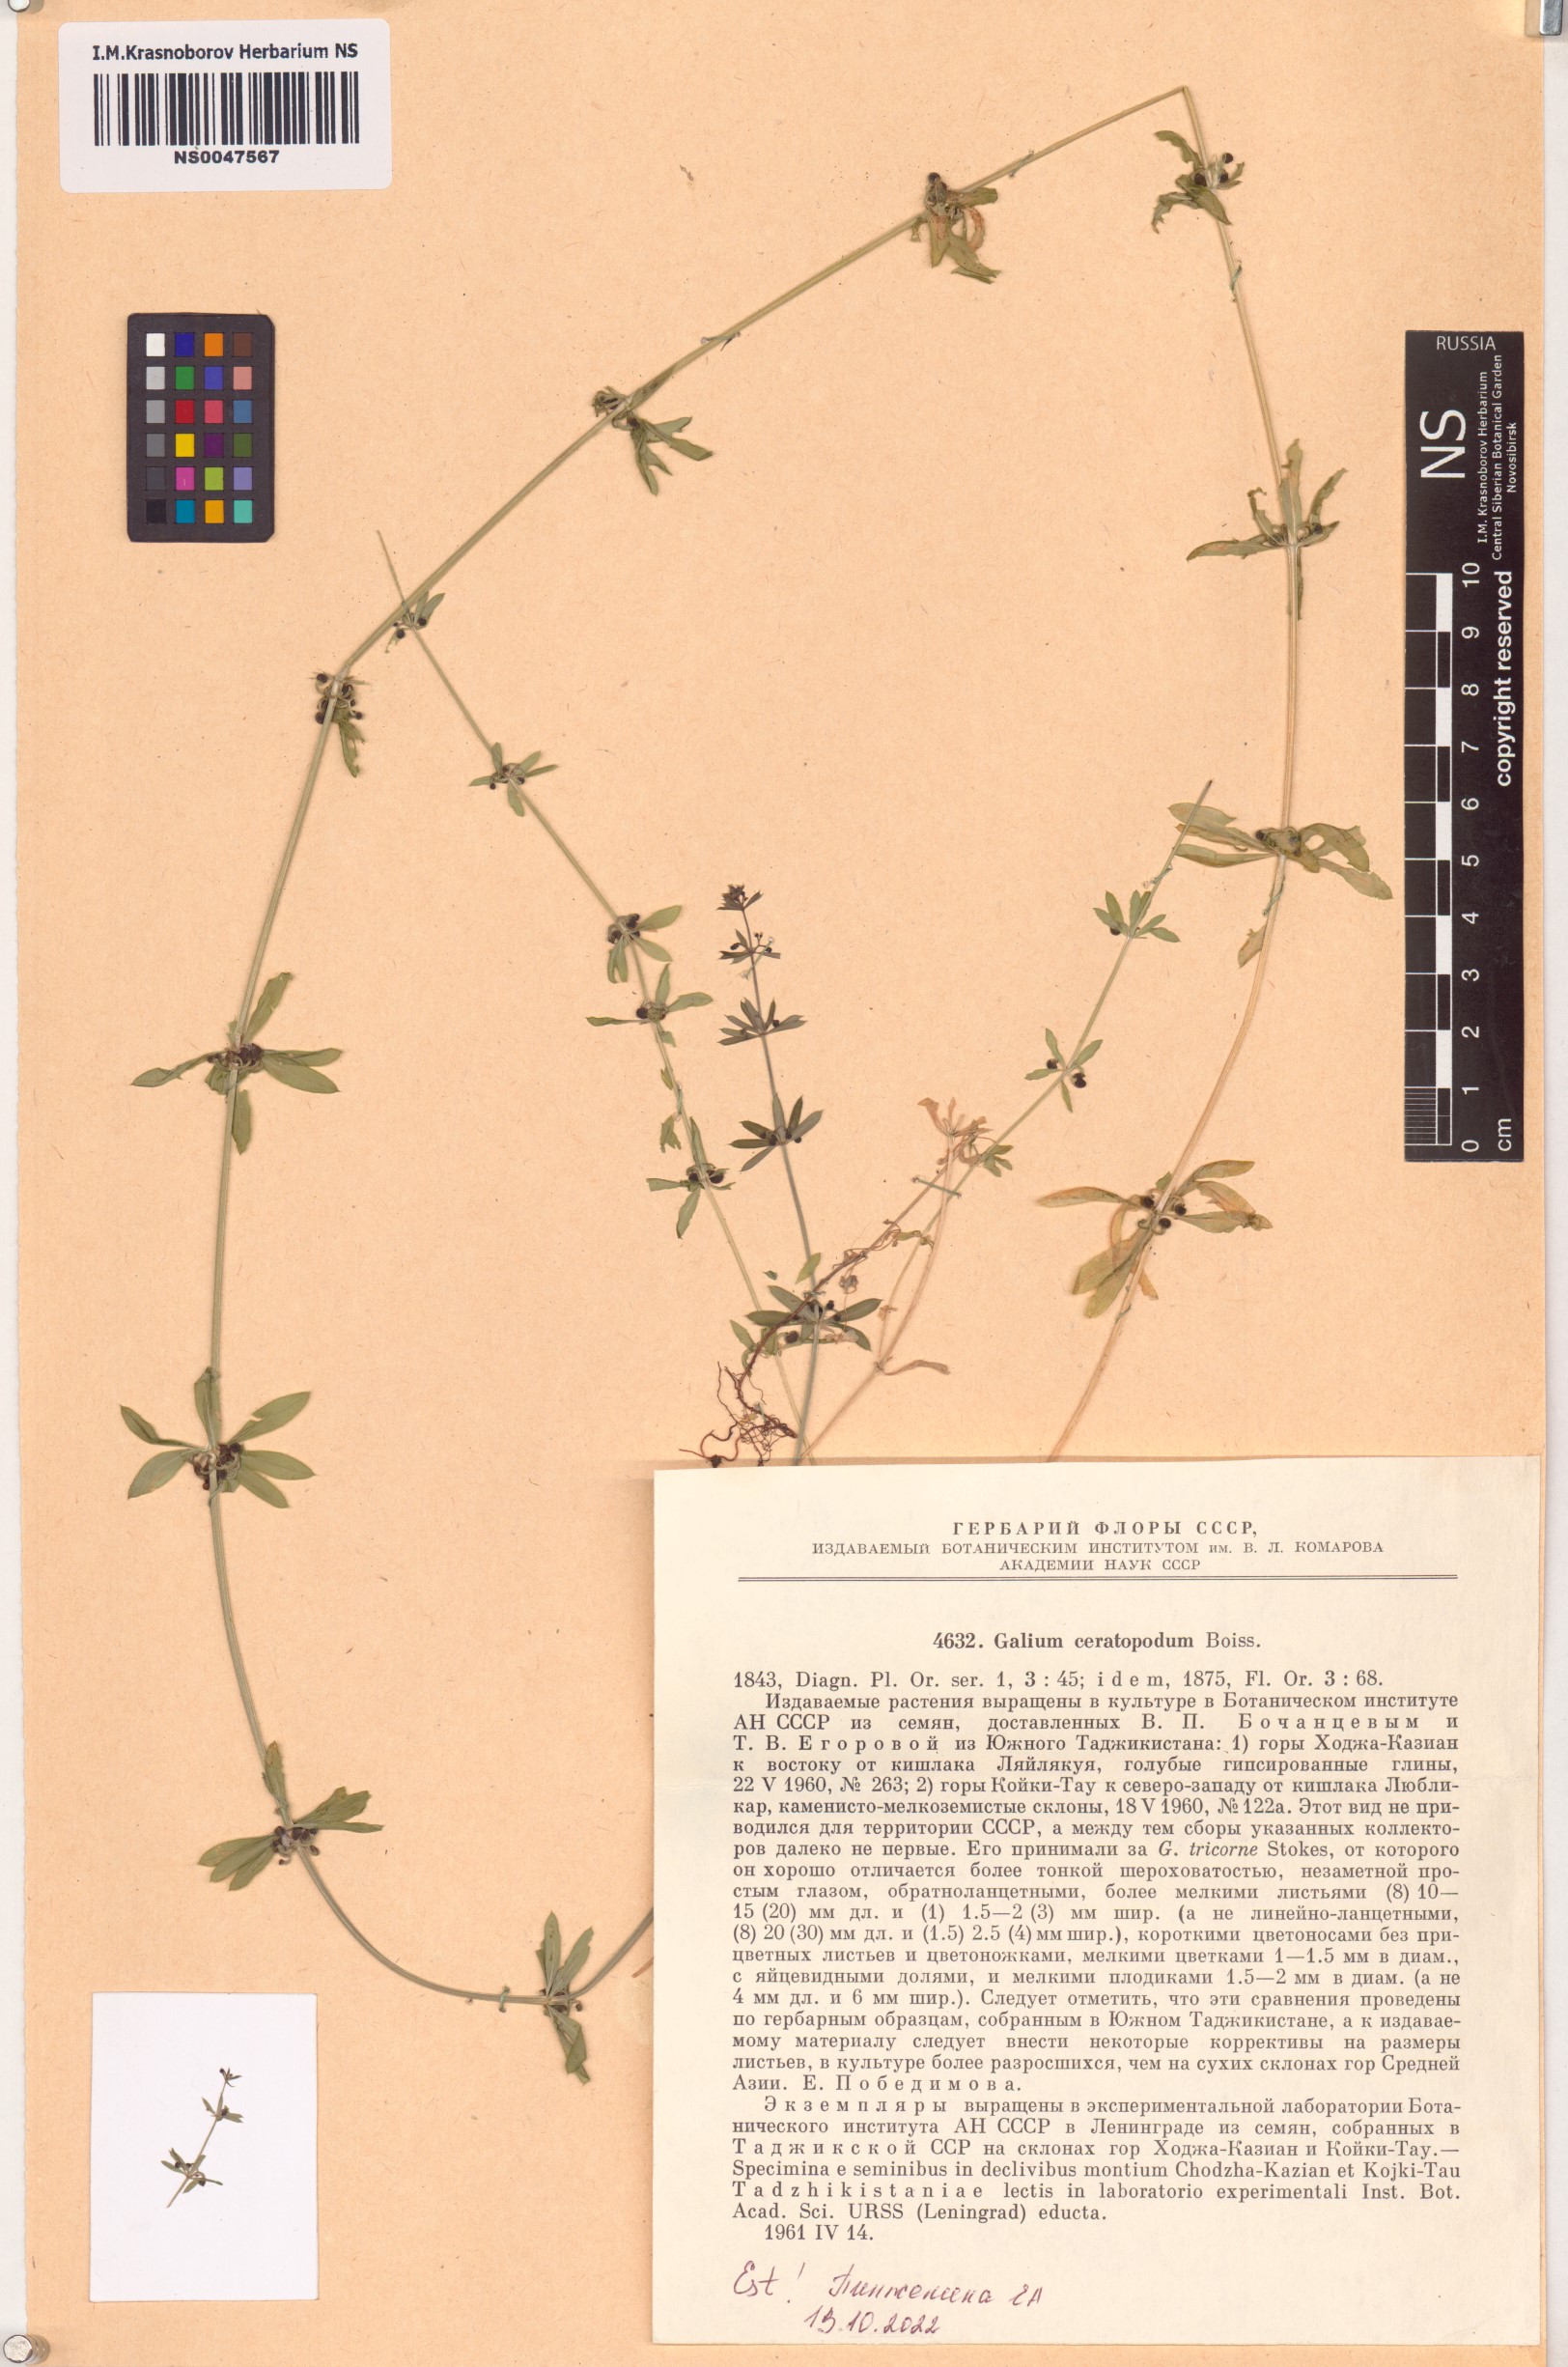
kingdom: Plantae
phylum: Tracheophyta
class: Magnoliopsida
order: Gentianales
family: Rubiaceae
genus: Galium
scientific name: Galium ceratopodum
